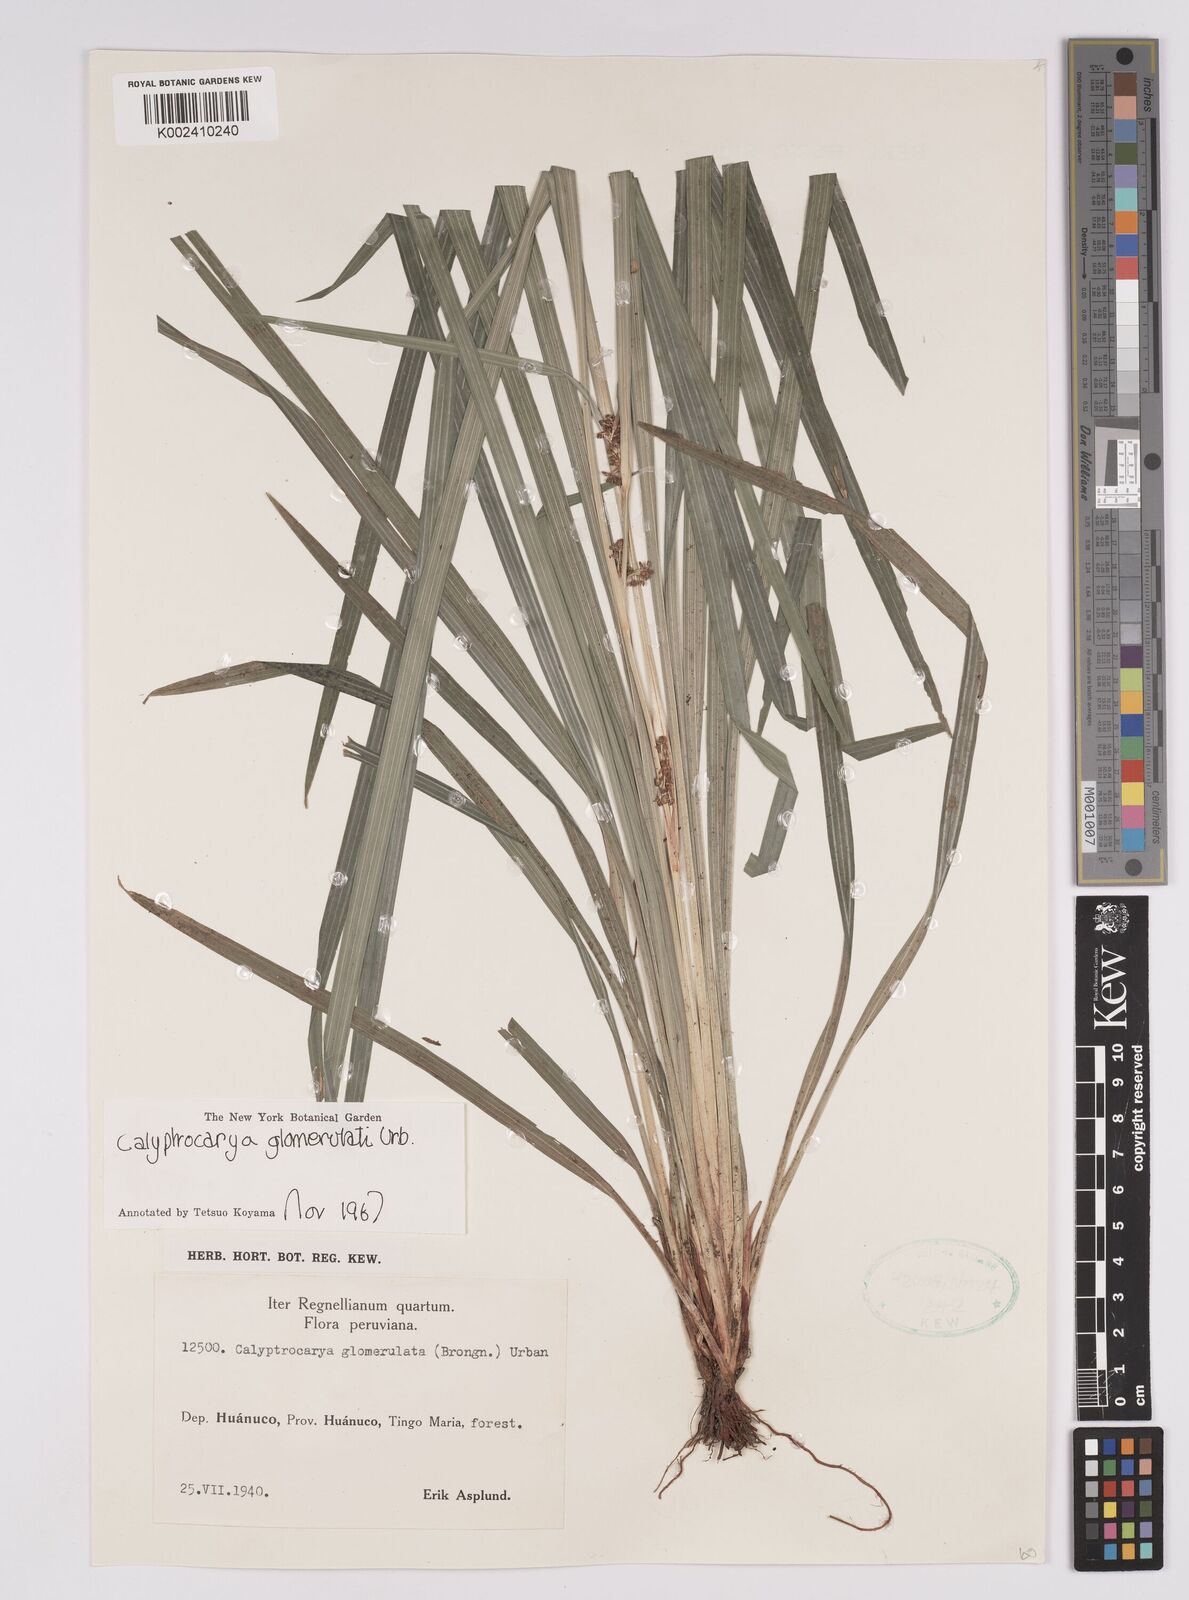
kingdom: Plantae
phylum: Tracheophyta
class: Liliopsida
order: Poales
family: Cyperaceae
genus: Calyptrocarya
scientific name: Calyptrocarya glomerulata
